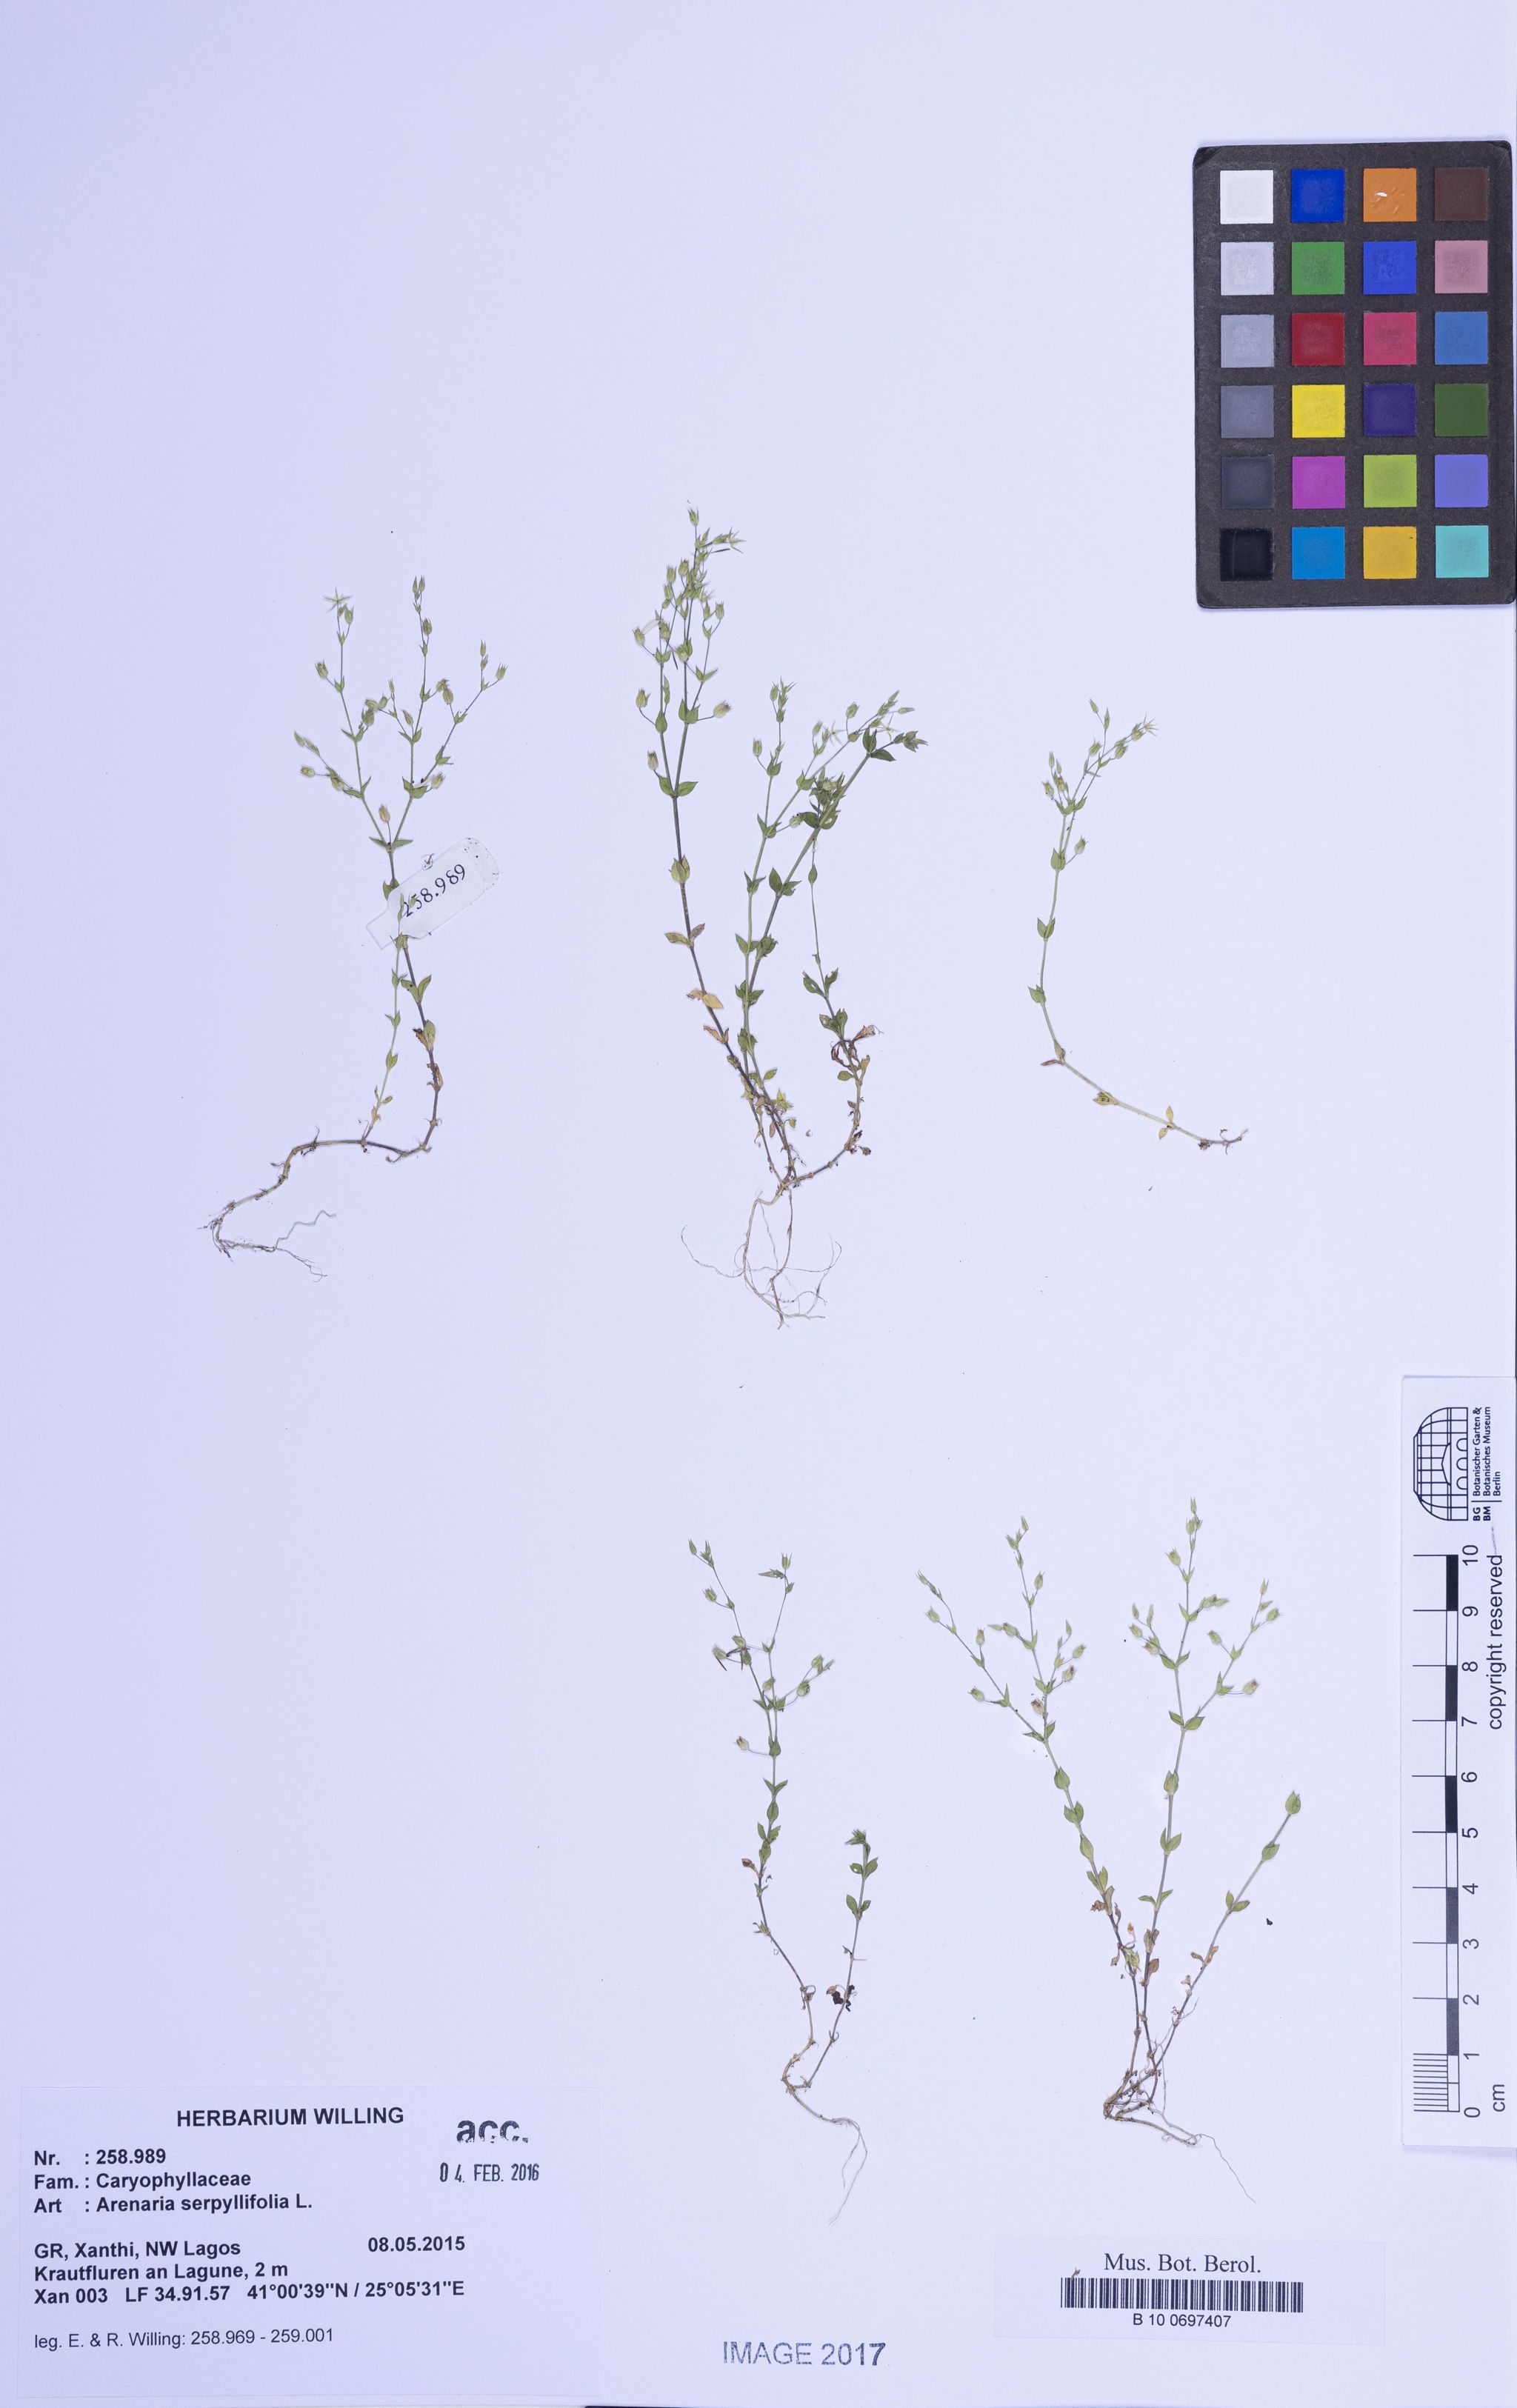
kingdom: Plantae
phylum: Tracheophyta
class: Magnoliopsida
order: Caryophyllales
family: Caryophyllaceae
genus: Arenaria
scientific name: Arenaria serpyllifolia
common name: Thyme-leaved sandwort
